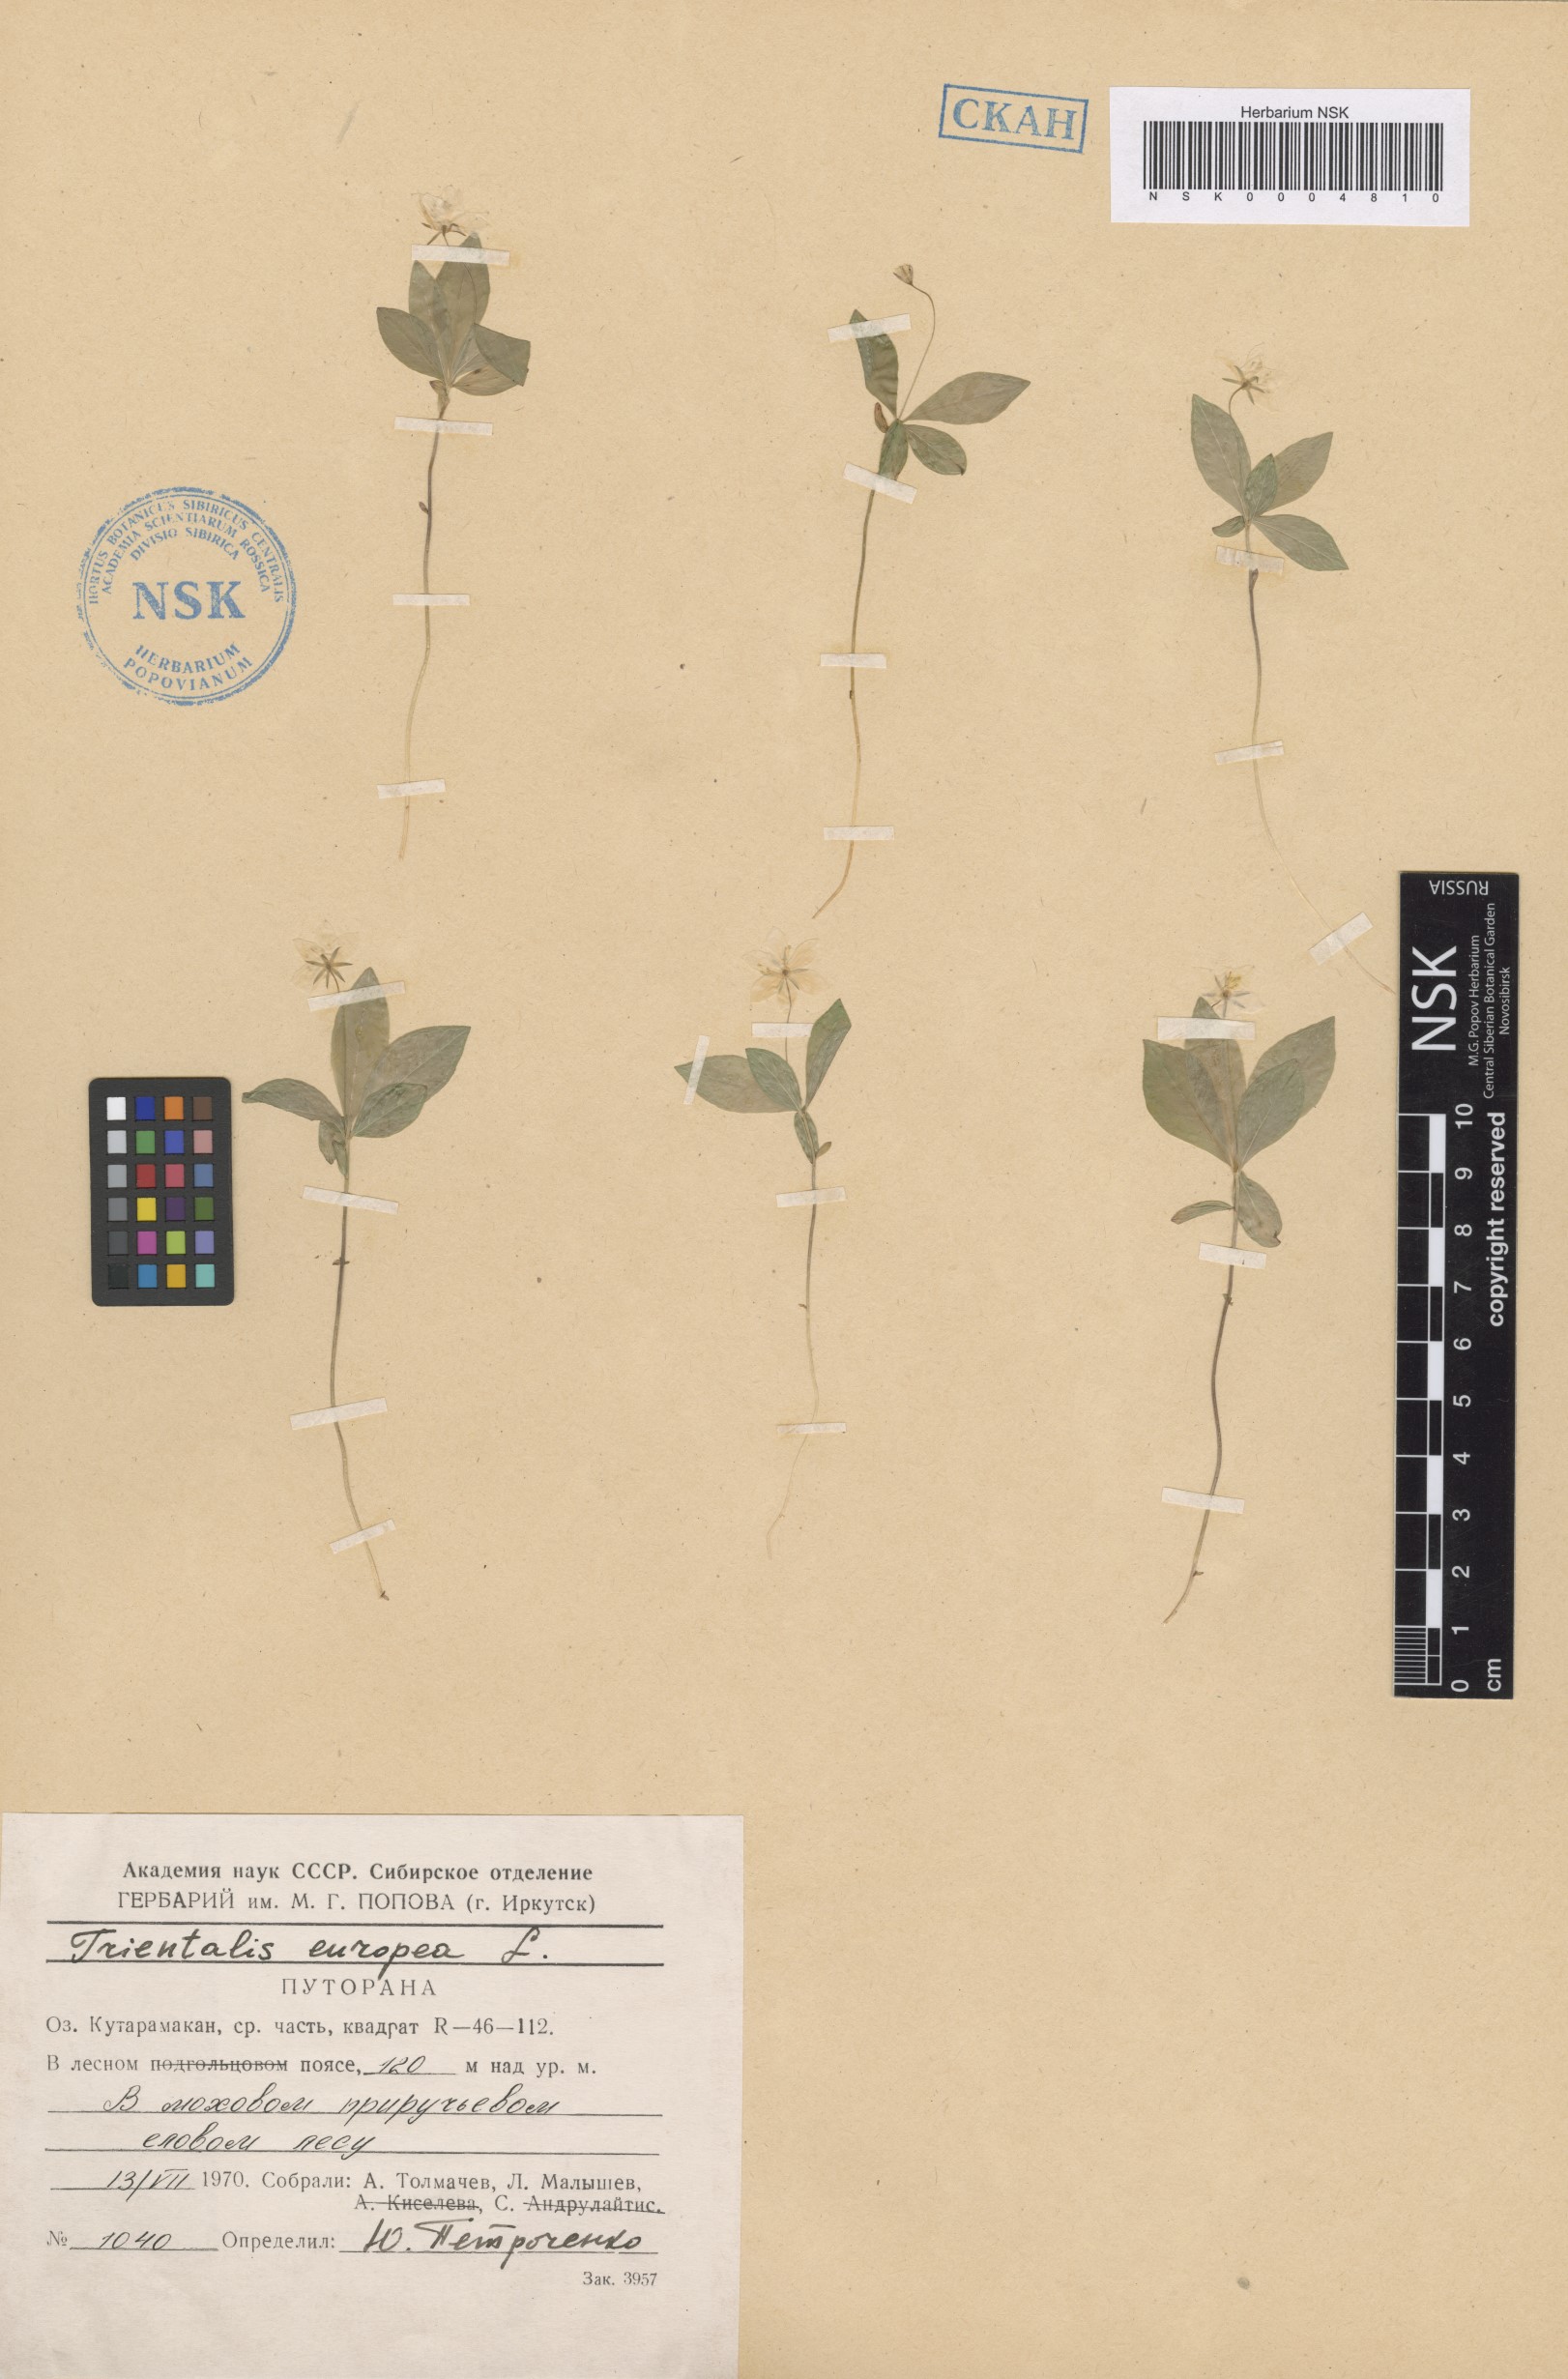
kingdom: Plantae
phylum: Tracheophyta
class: Magnoliopsida
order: Ericales
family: Primulaceae
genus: Lysimachia
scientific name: Lysimachia europaea
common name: Arctic starflower
